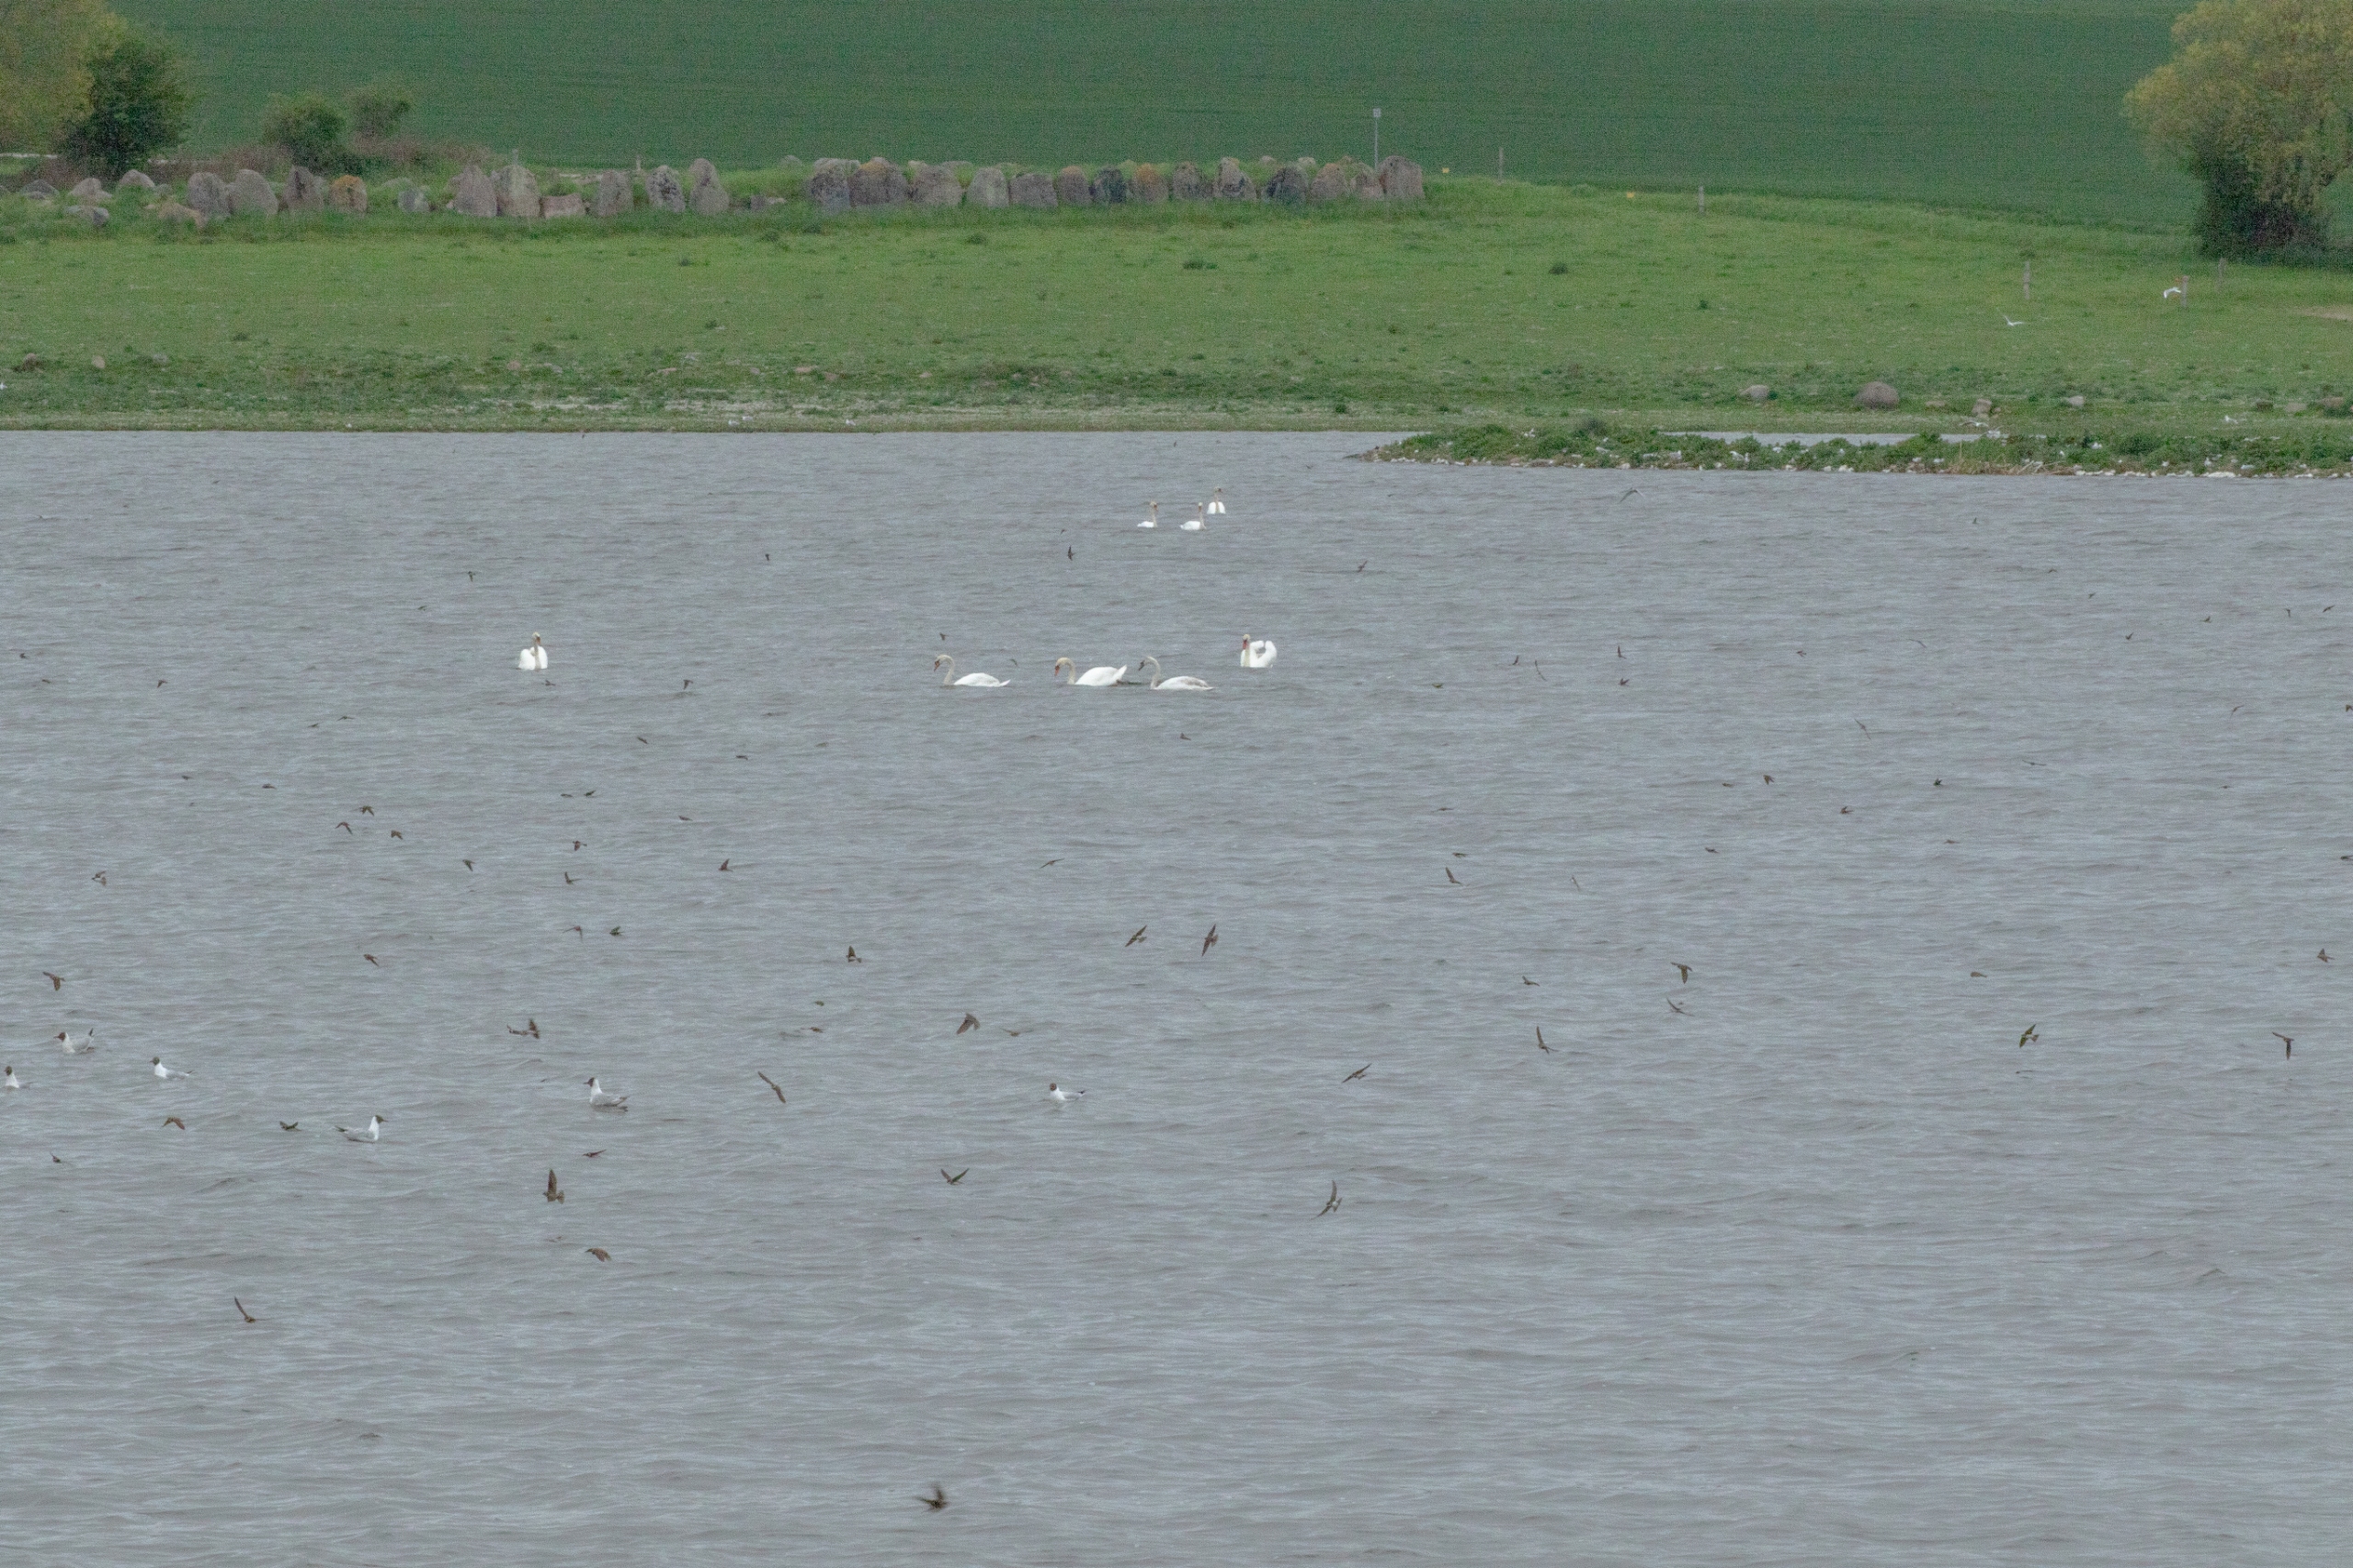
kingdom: Animalia
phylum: Chordata
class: Aves
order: Anseriformes
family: Anatidae
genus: Cygnus
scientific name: Cygnus olor
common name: Knopsvane
